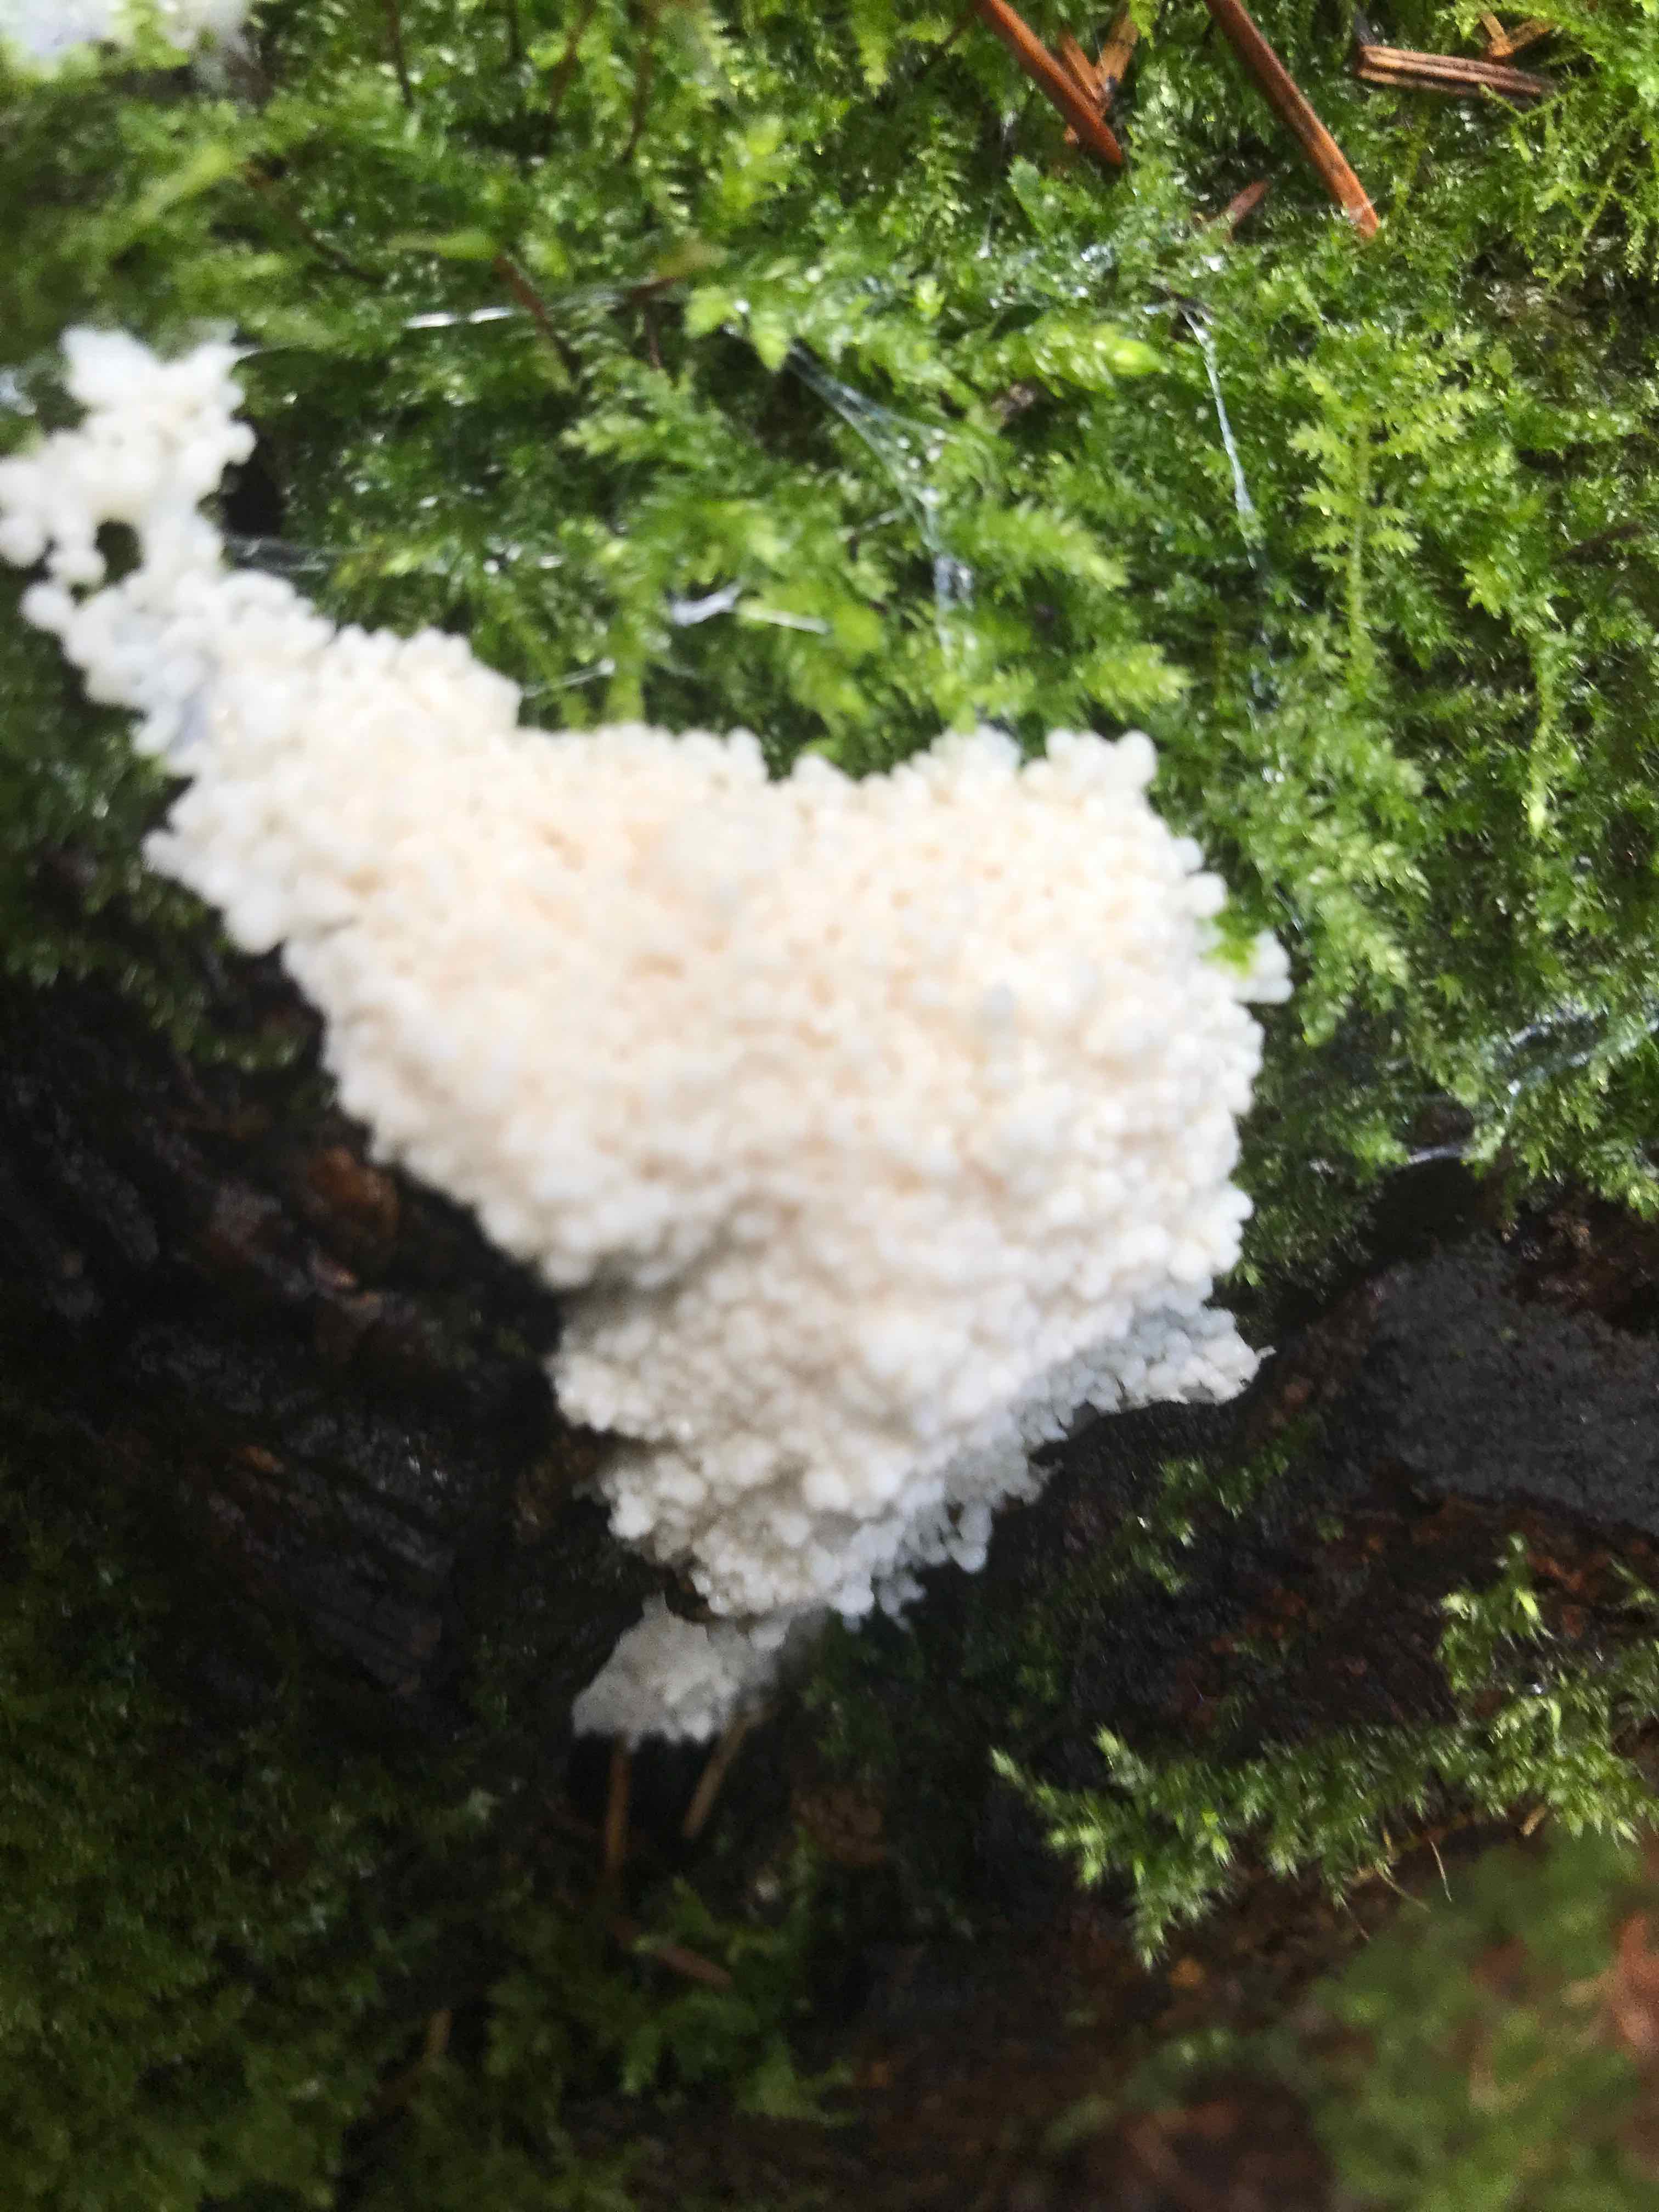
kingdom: Protozoa
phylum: Mycetozoa
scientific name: Mycetozoa
